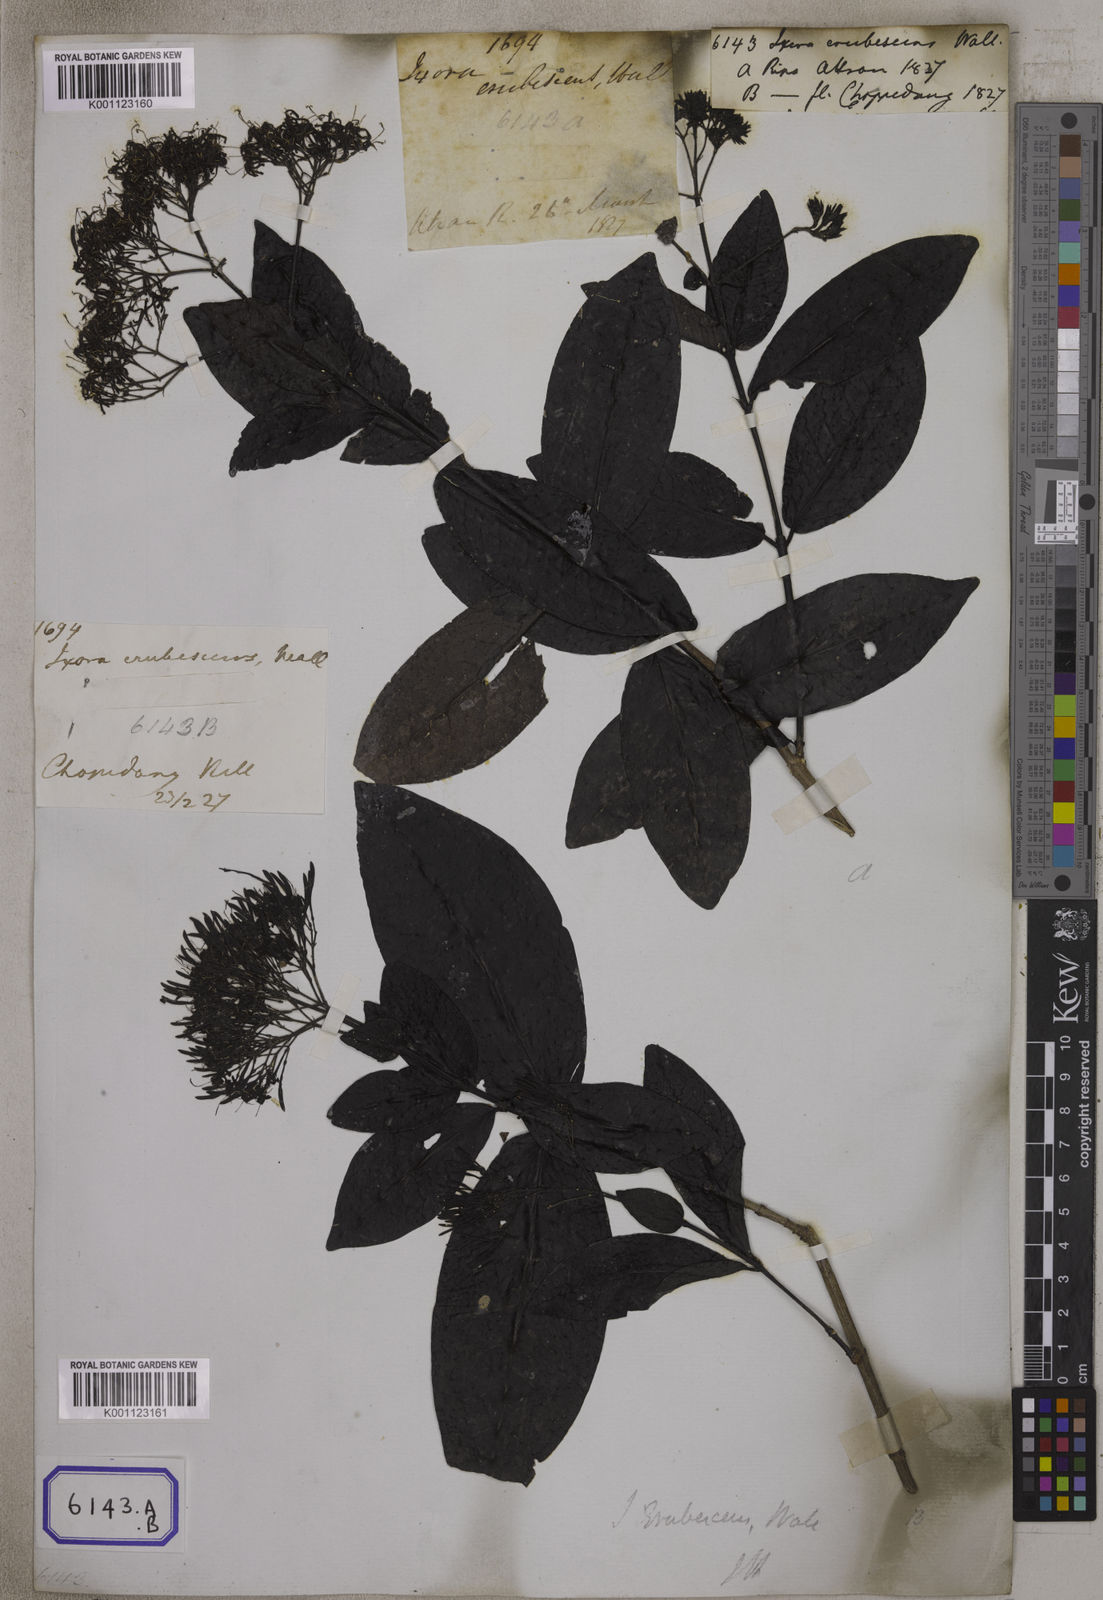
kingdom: Plantae
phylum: Tracheophyta
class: Magnoliopsida
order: Gentianales
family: Rubiaceae
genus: Ixora
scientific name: Ixora
